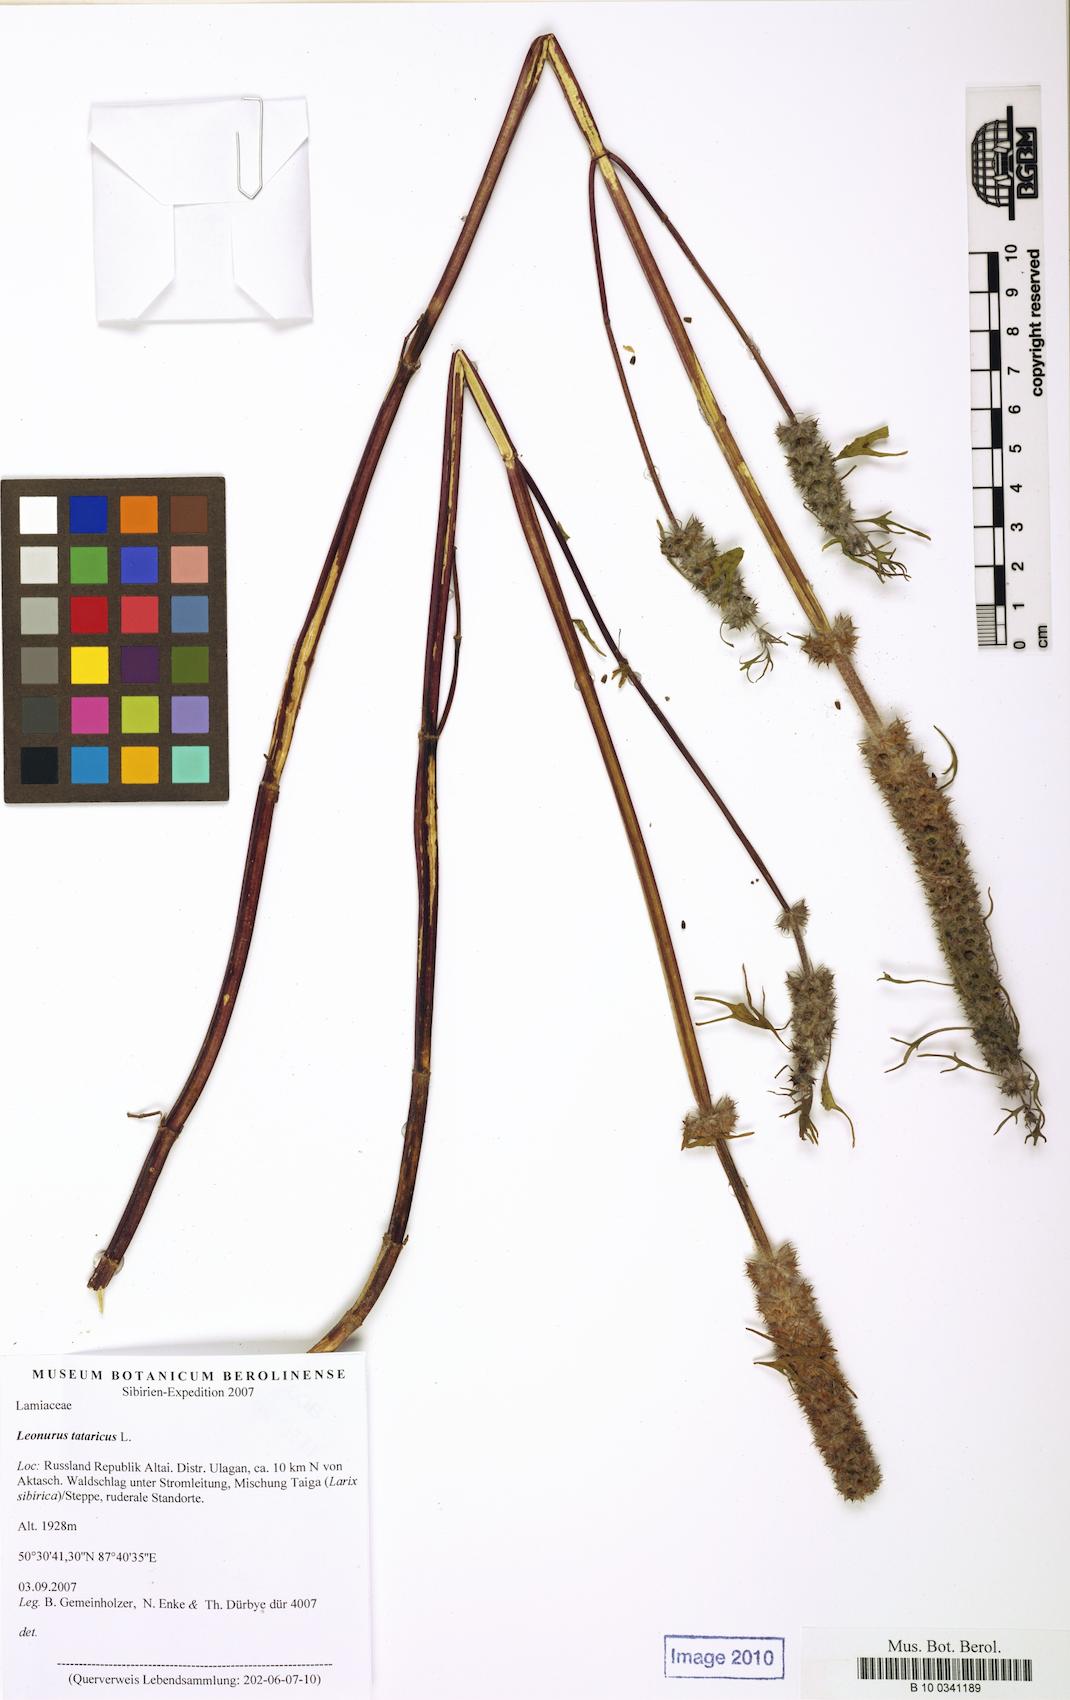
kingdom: Plantae
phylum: Tracheophyta
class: Magnoliopsida
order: Lamiales
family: Lamiaceae
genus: Leonurus
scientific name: Leonurus tataricus
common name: Chinese motherwort
